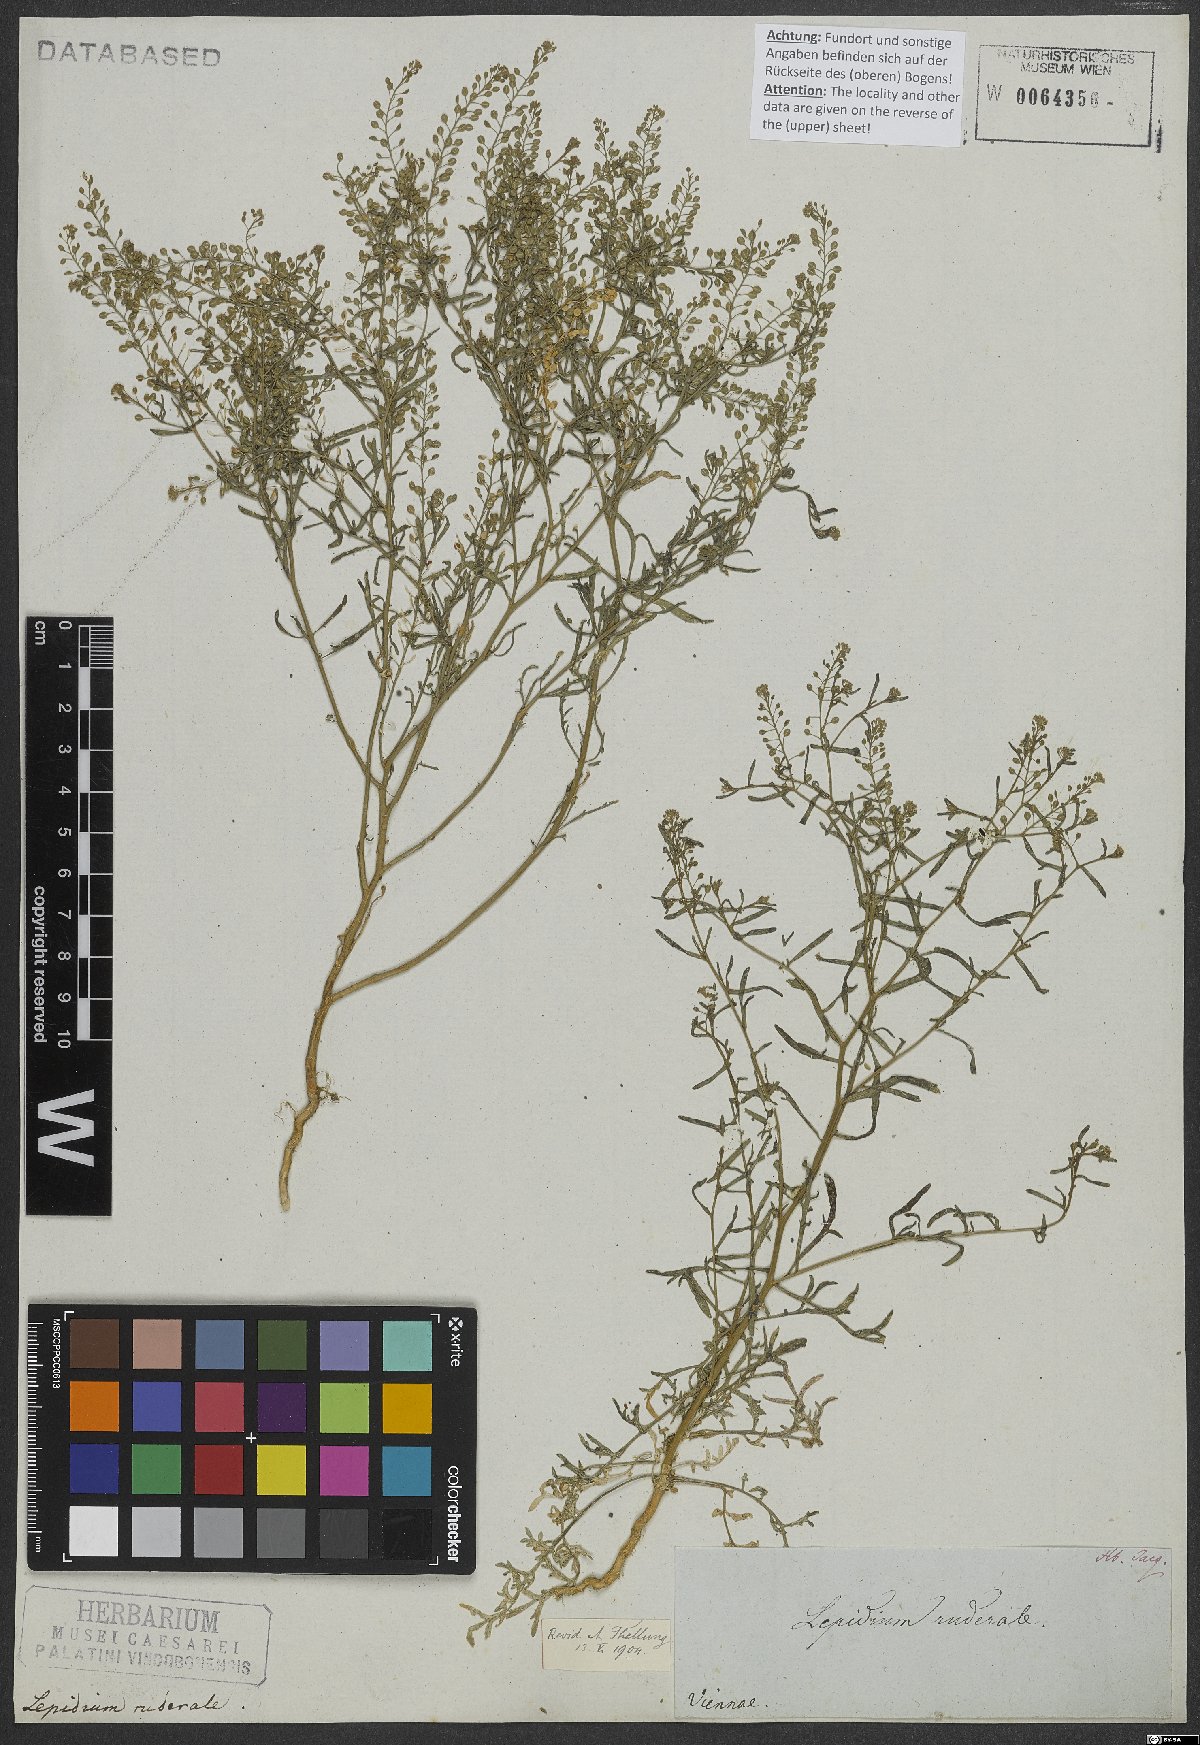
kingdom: Plantae
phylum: Tracheophyta
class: Magnoliopsida
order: Brassicales
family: Brassicaceae
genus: Lepidium
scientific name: Lepidium ruderale
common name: Narrow-leaved pepperwort
